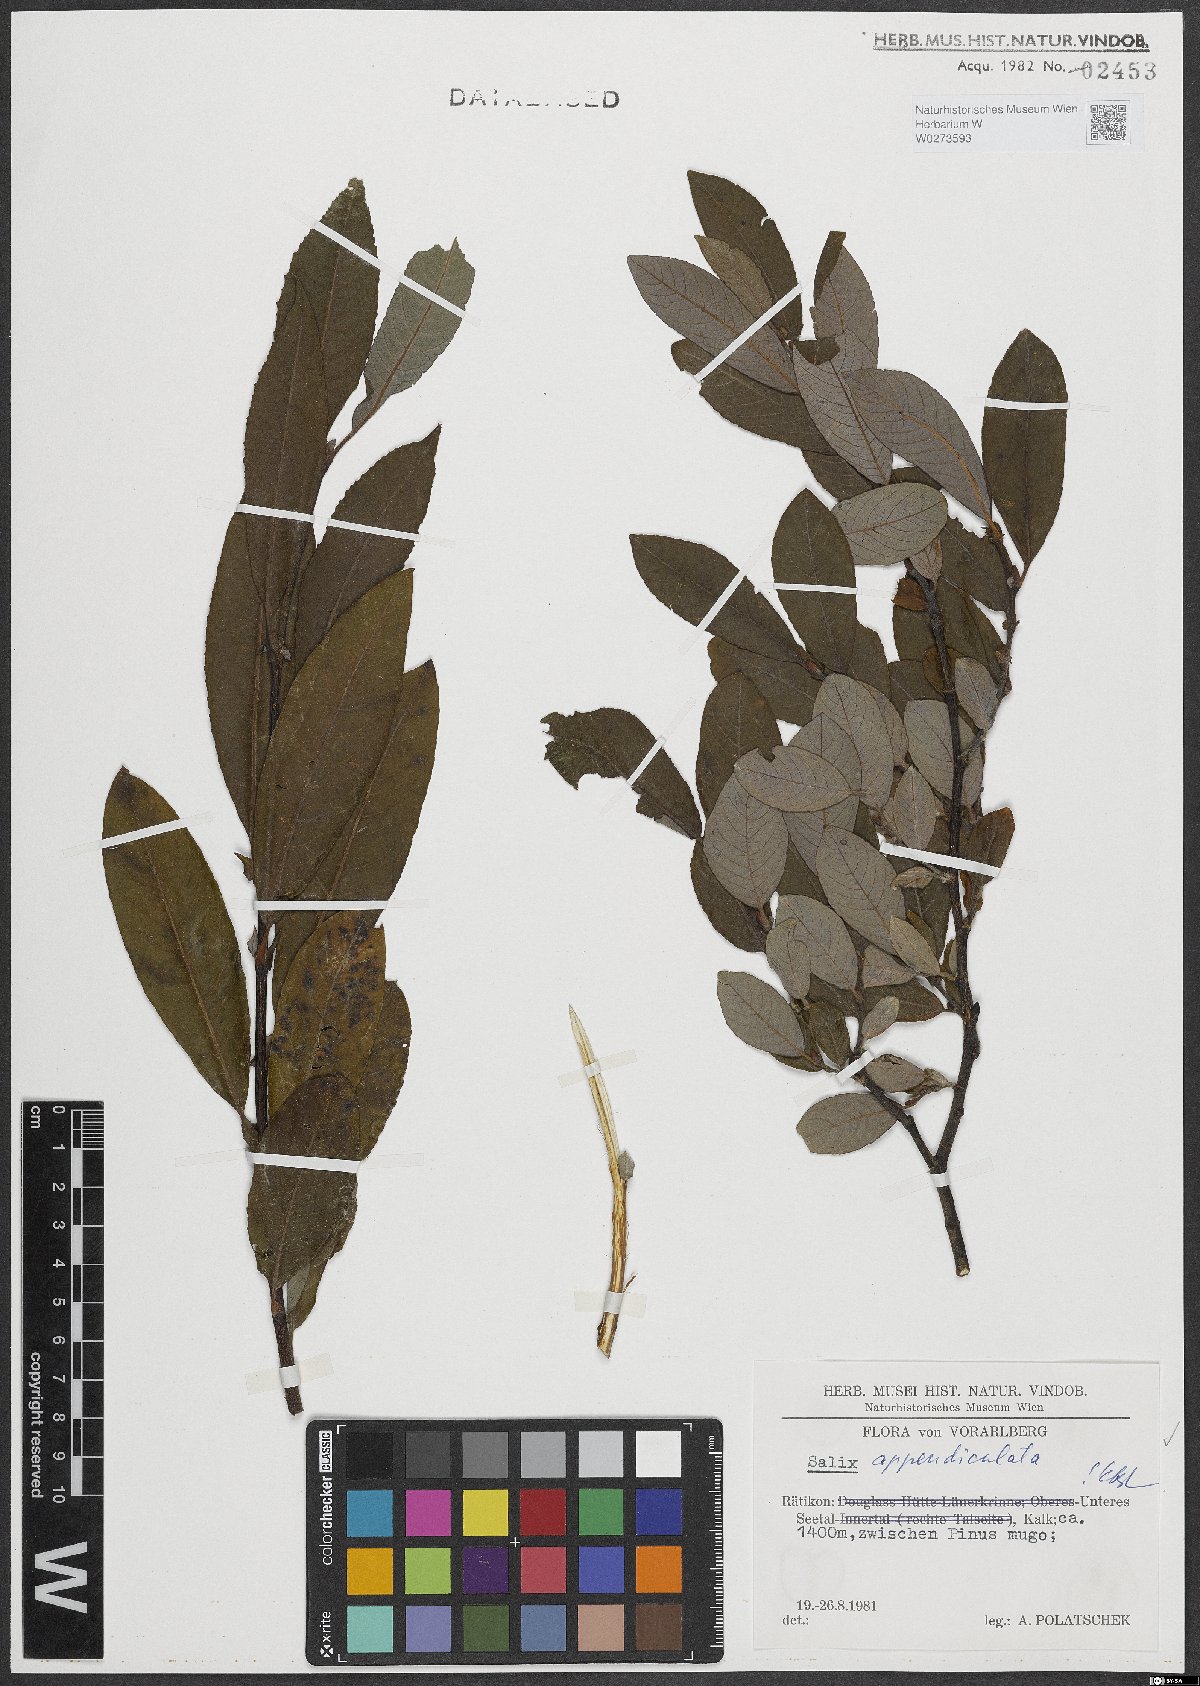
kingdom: Plantae
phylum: Tracheophyta
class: Magnoliopsida
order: Malpighiales
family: Salicaceae
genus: Salix
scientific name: Salix appendiculata
